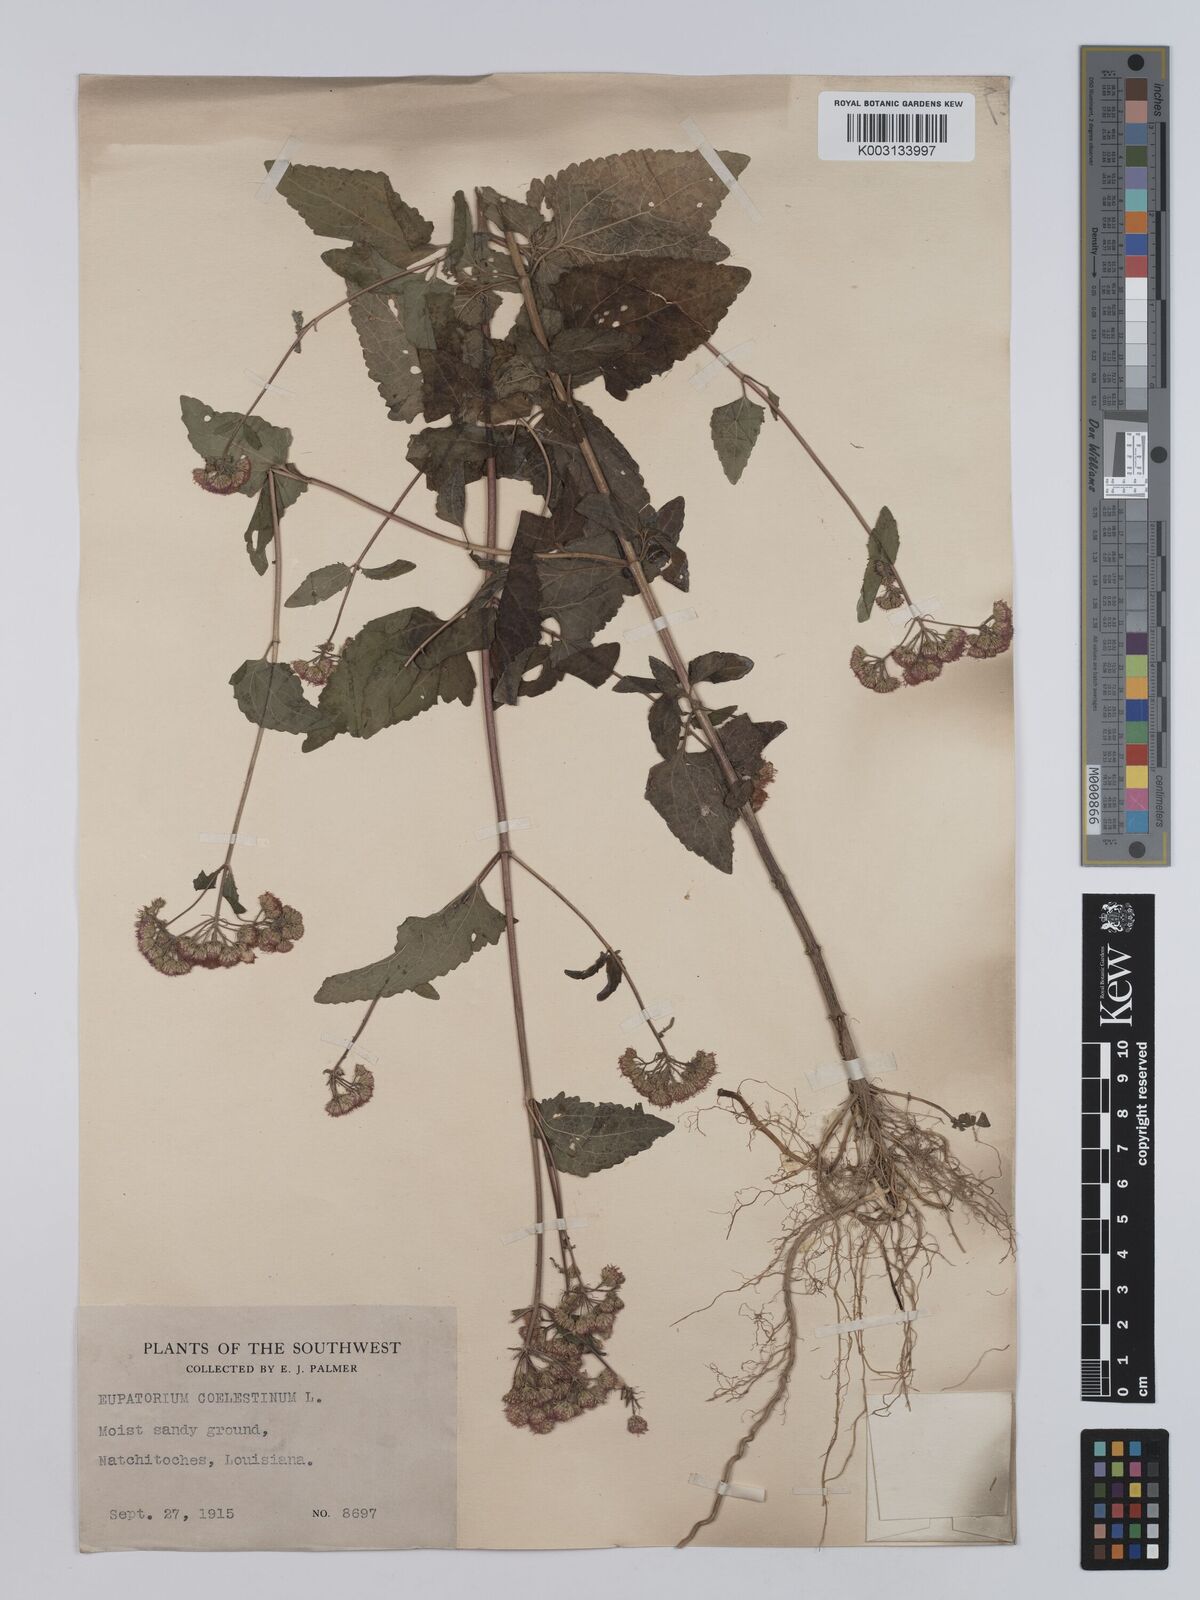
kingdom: Plantae
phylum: Tracheophyta
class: Magnoliopsida
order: Asterales
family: Asteraceae
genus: Conoclinium
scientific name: Conoclinium coelestinum
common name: Blue mistflower
